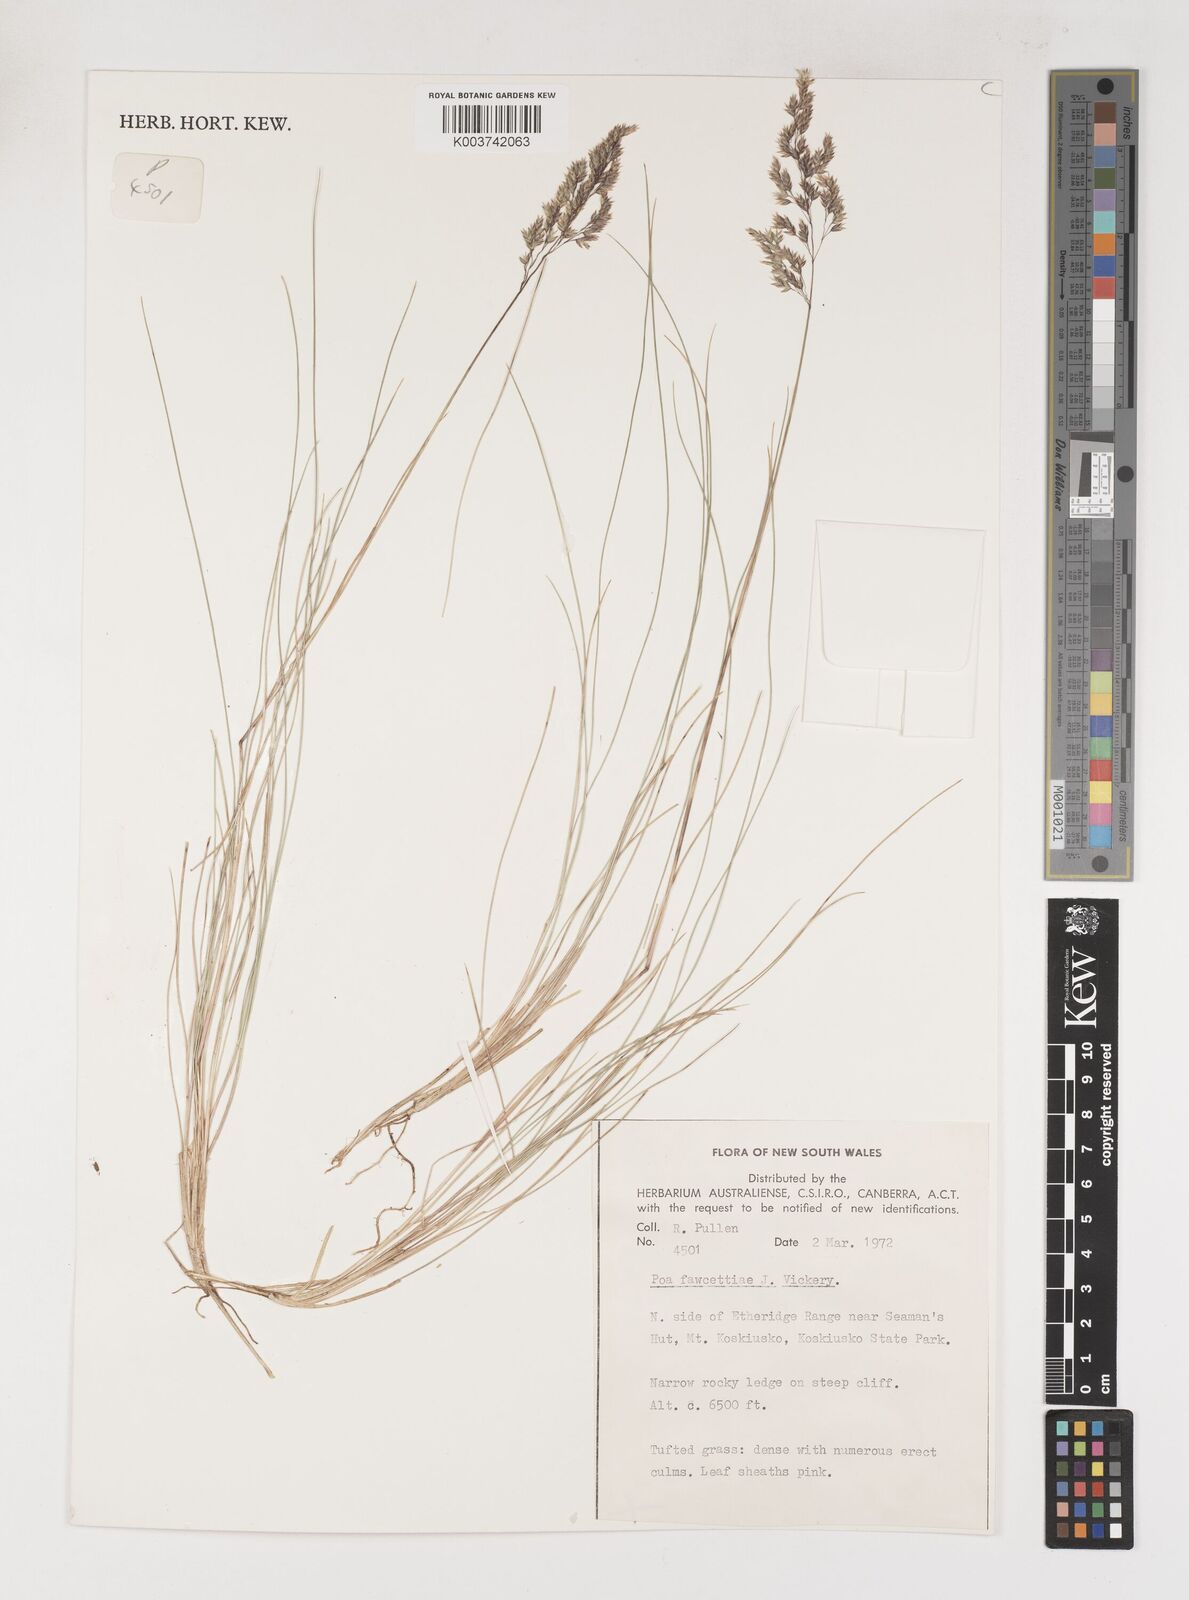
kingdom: Plantae
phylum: Tracheophyta
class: Liliopsida
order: Poales
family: Poaceae
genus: Poa
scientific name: Poa fawcettiae
